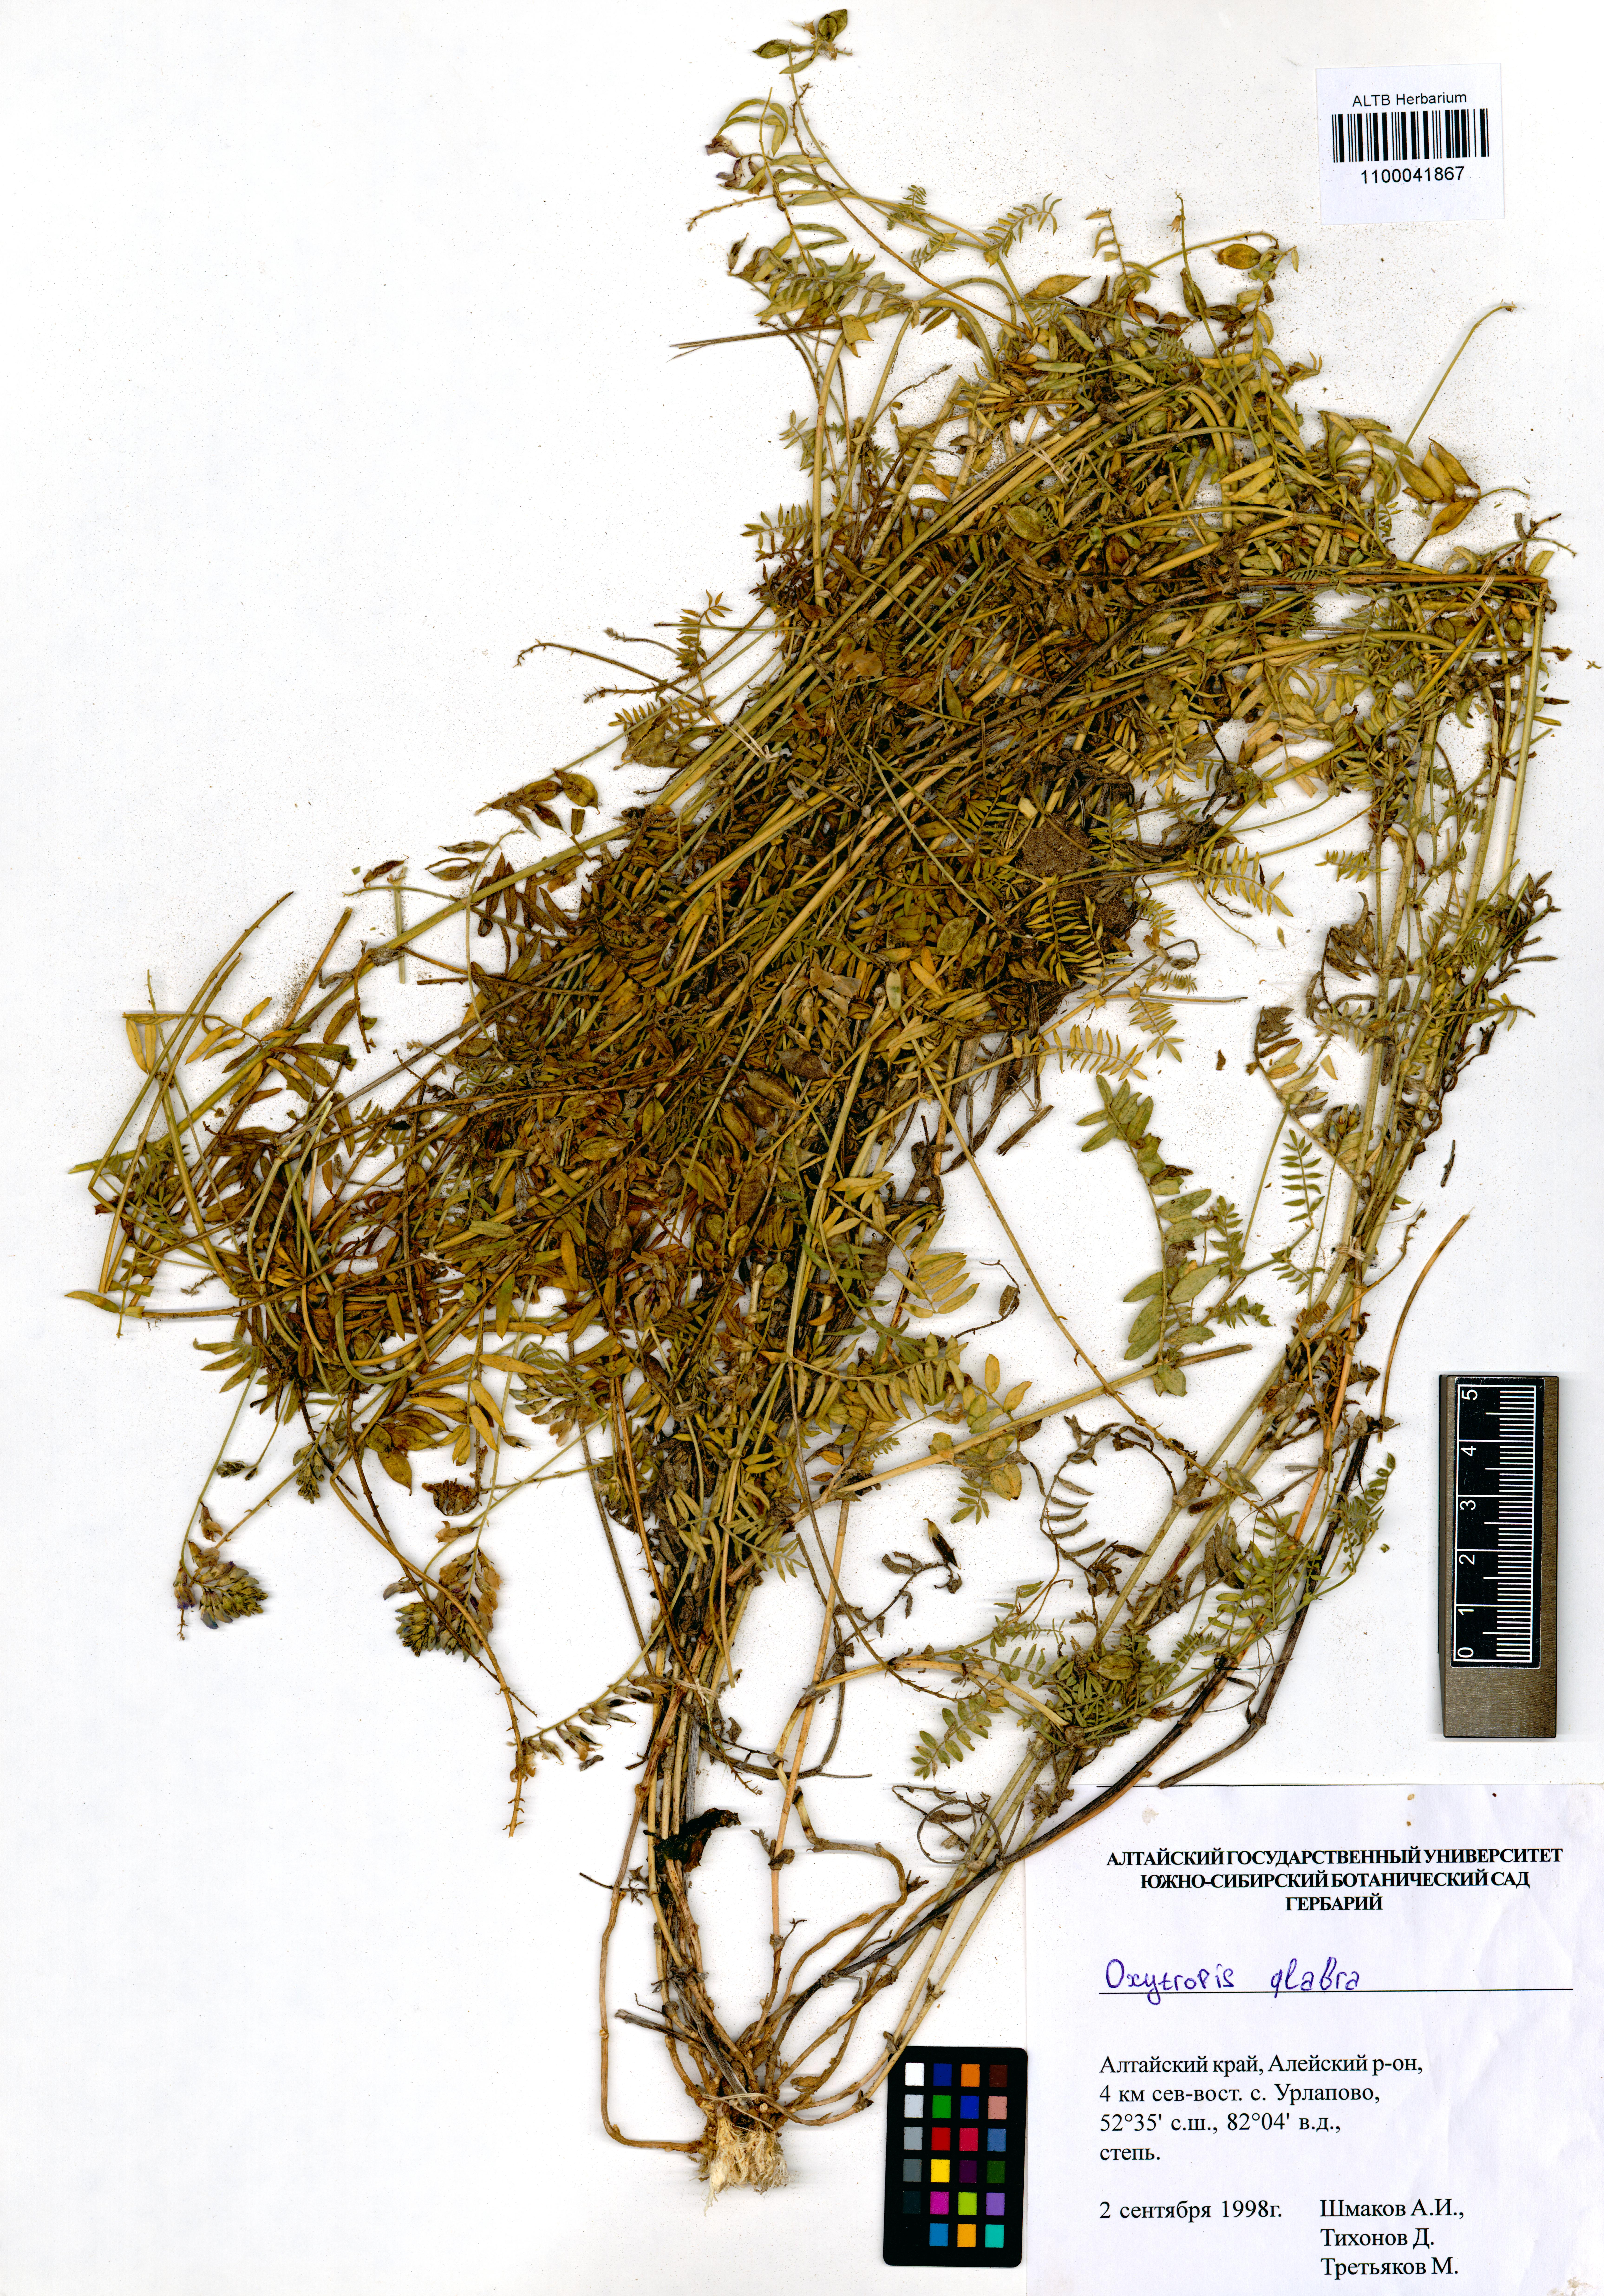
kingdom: Plantae
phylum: Tracheophyta
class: Magnoliopsida
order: Fabales
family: Fabaceae
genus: Oxytropis
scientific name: Oxytropis glabra
